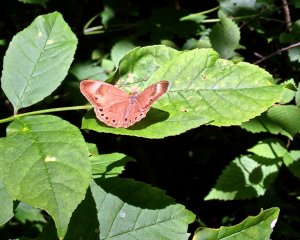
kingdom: Animalia
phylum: Arthropoda
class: Insecta
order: Lepidoptera
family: Nymphalidae
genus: Lethe
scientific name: Lethe eurydice
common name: Appalachian Eyed Brown
